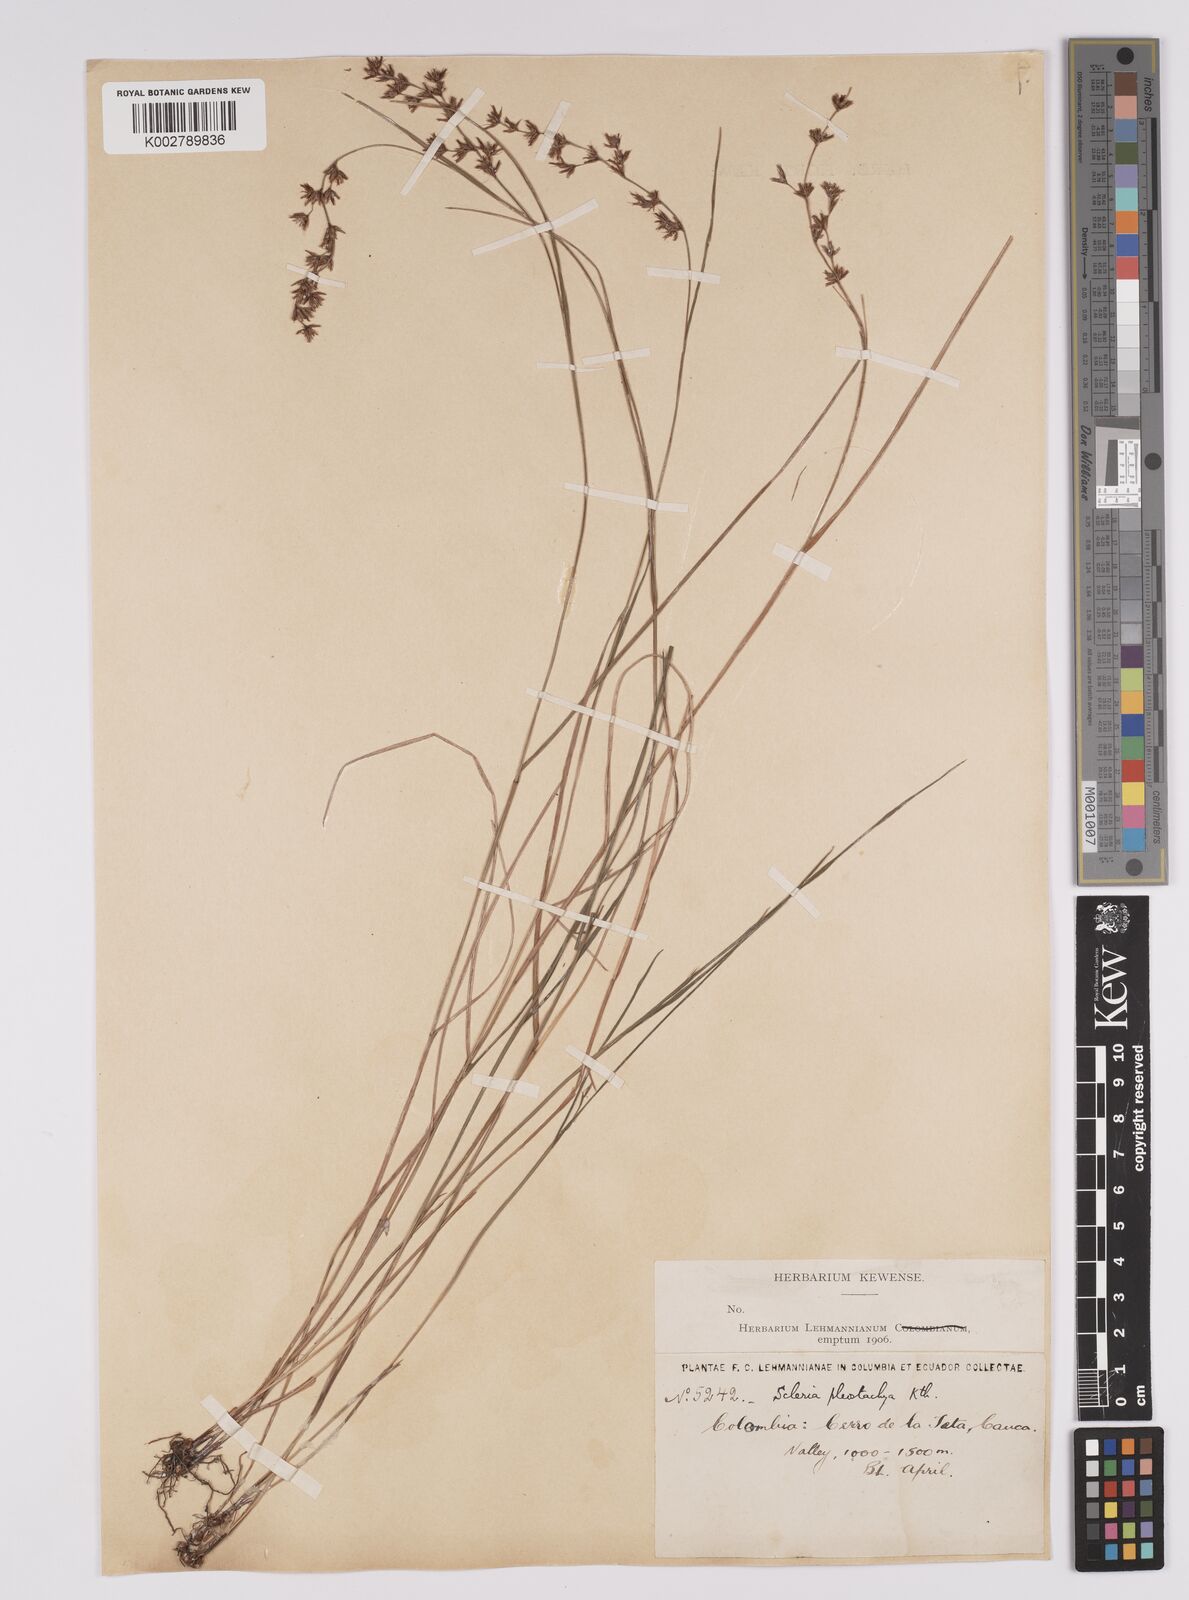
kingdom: Plantae
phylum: Tracheophyta
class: Liliopsida
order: Poales
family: Cyperaceae
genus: Scleria
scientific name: Scleria spicata
